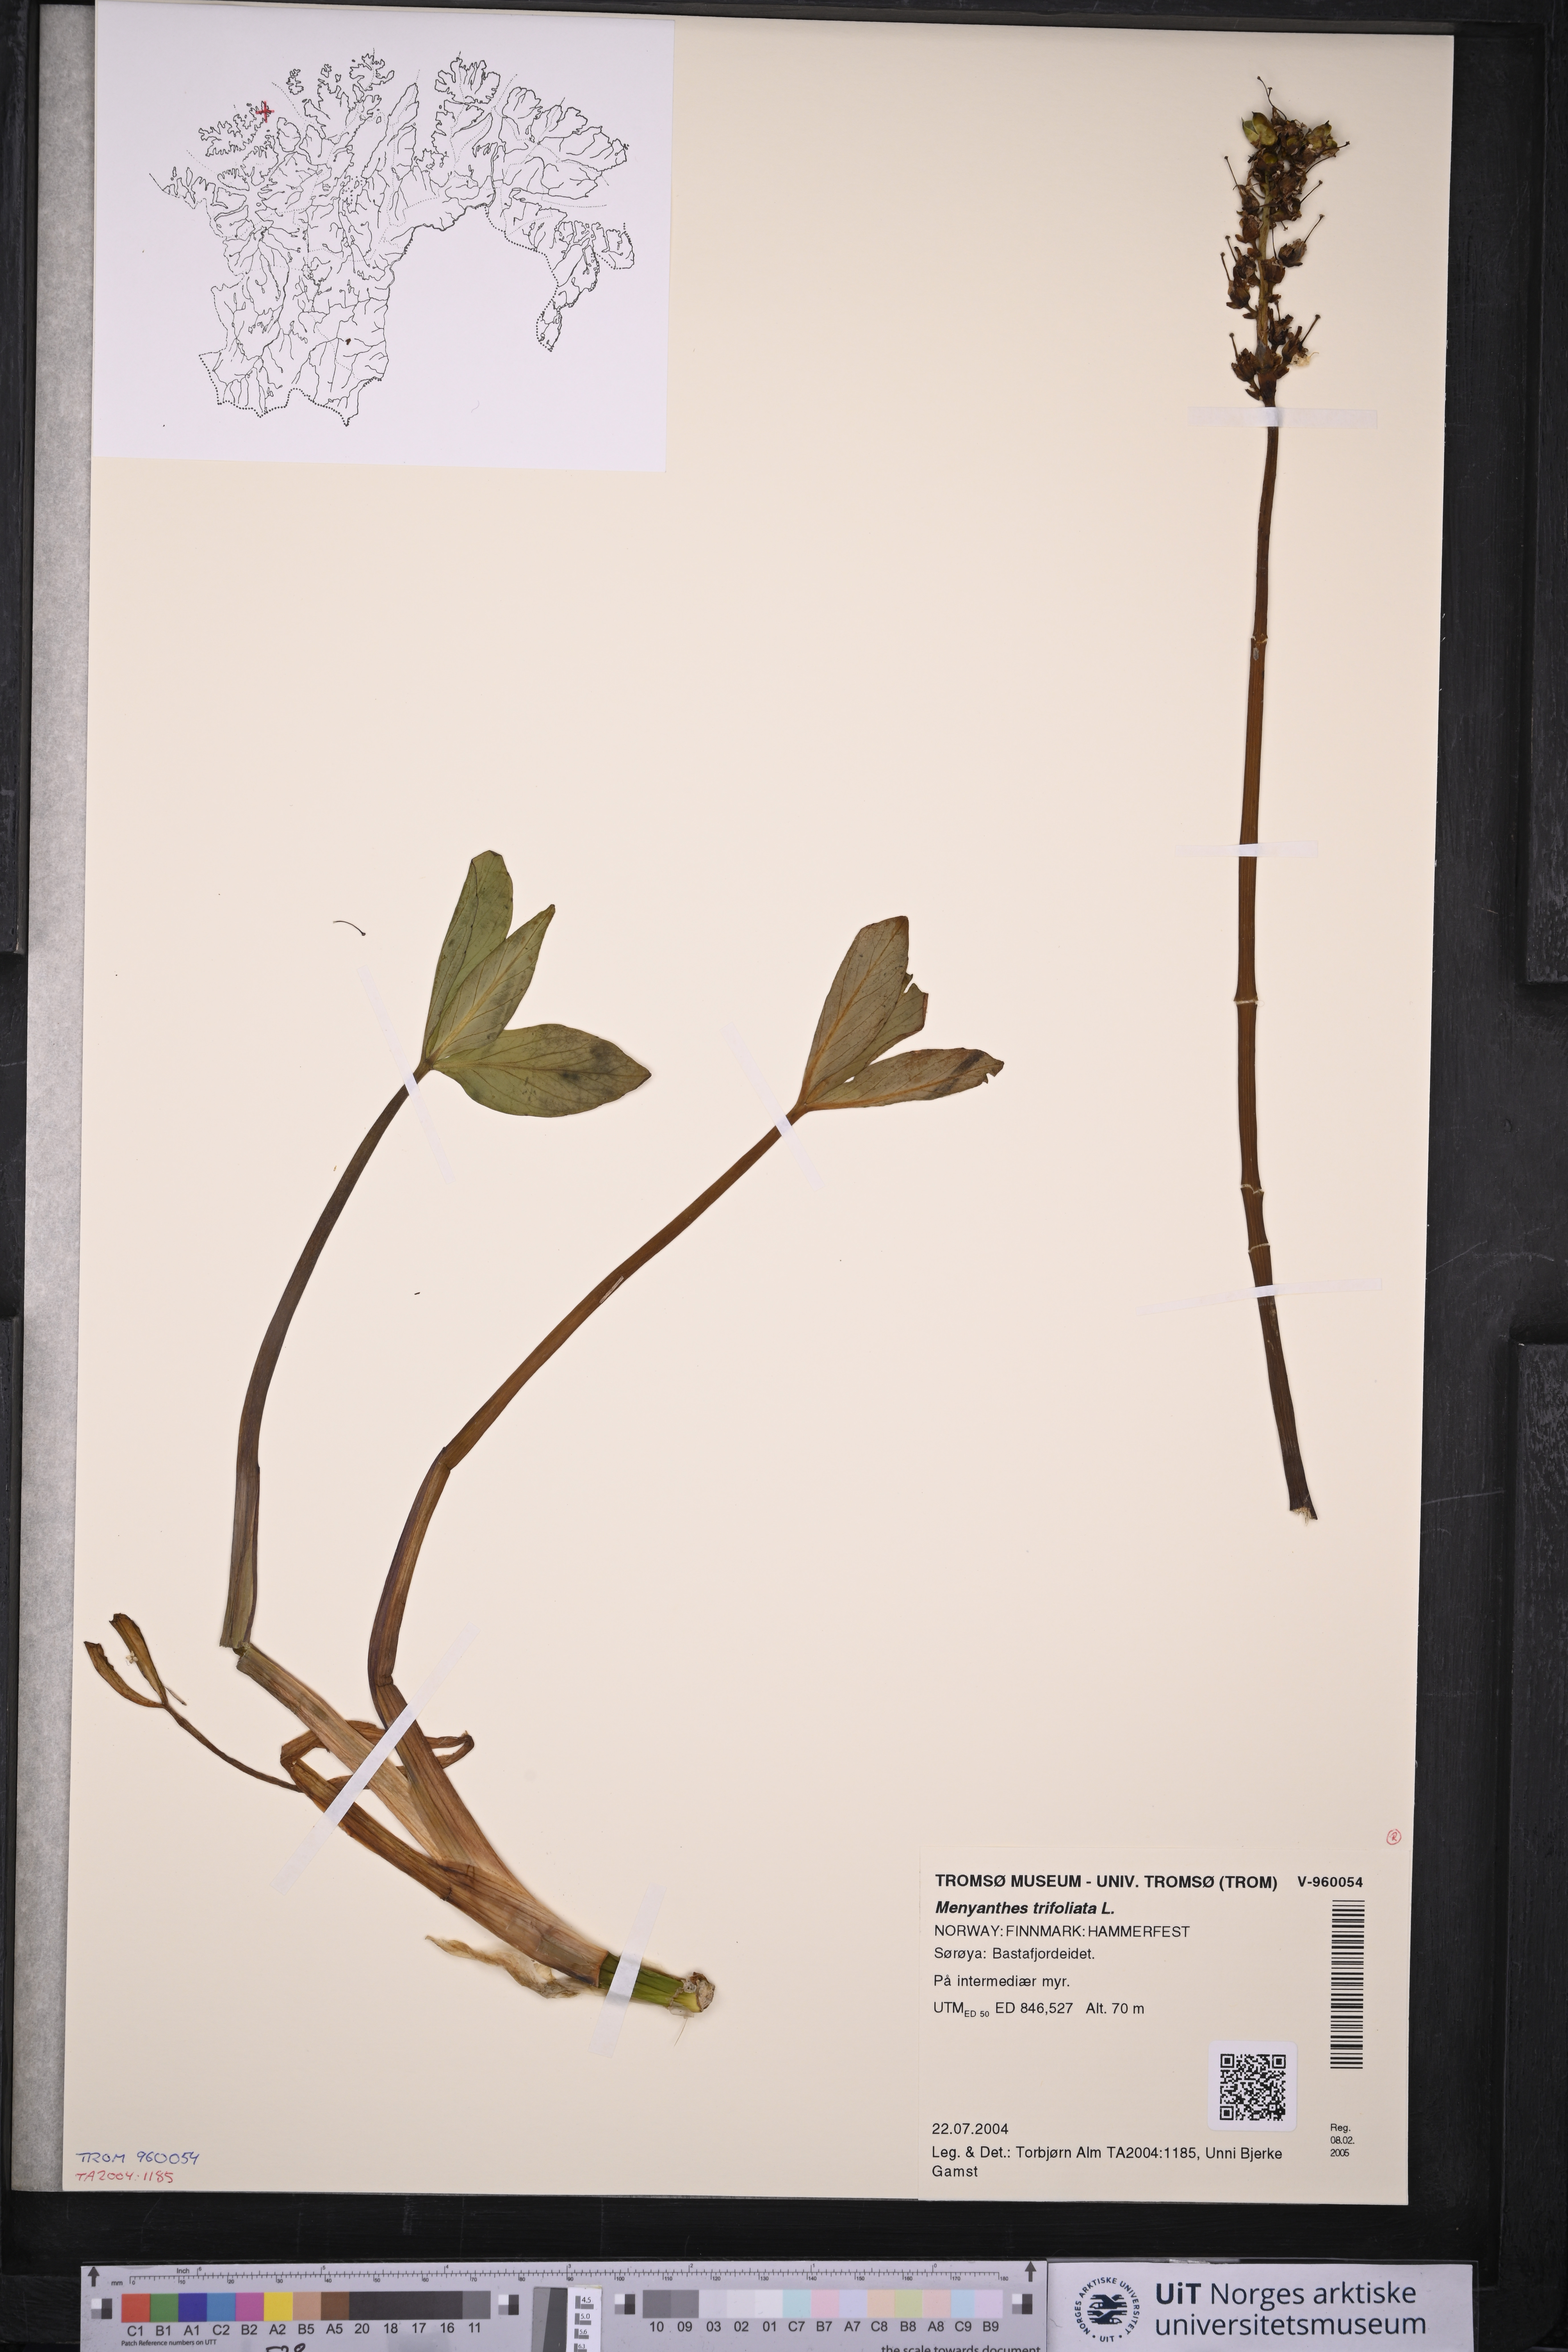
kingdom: Plantae
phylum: Tracheophyta
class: Magnoliopsida
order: Asterales
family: Menyanthaceae
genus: Menyanthes
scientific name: Menyanthes trifoliata
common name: Bogbean
